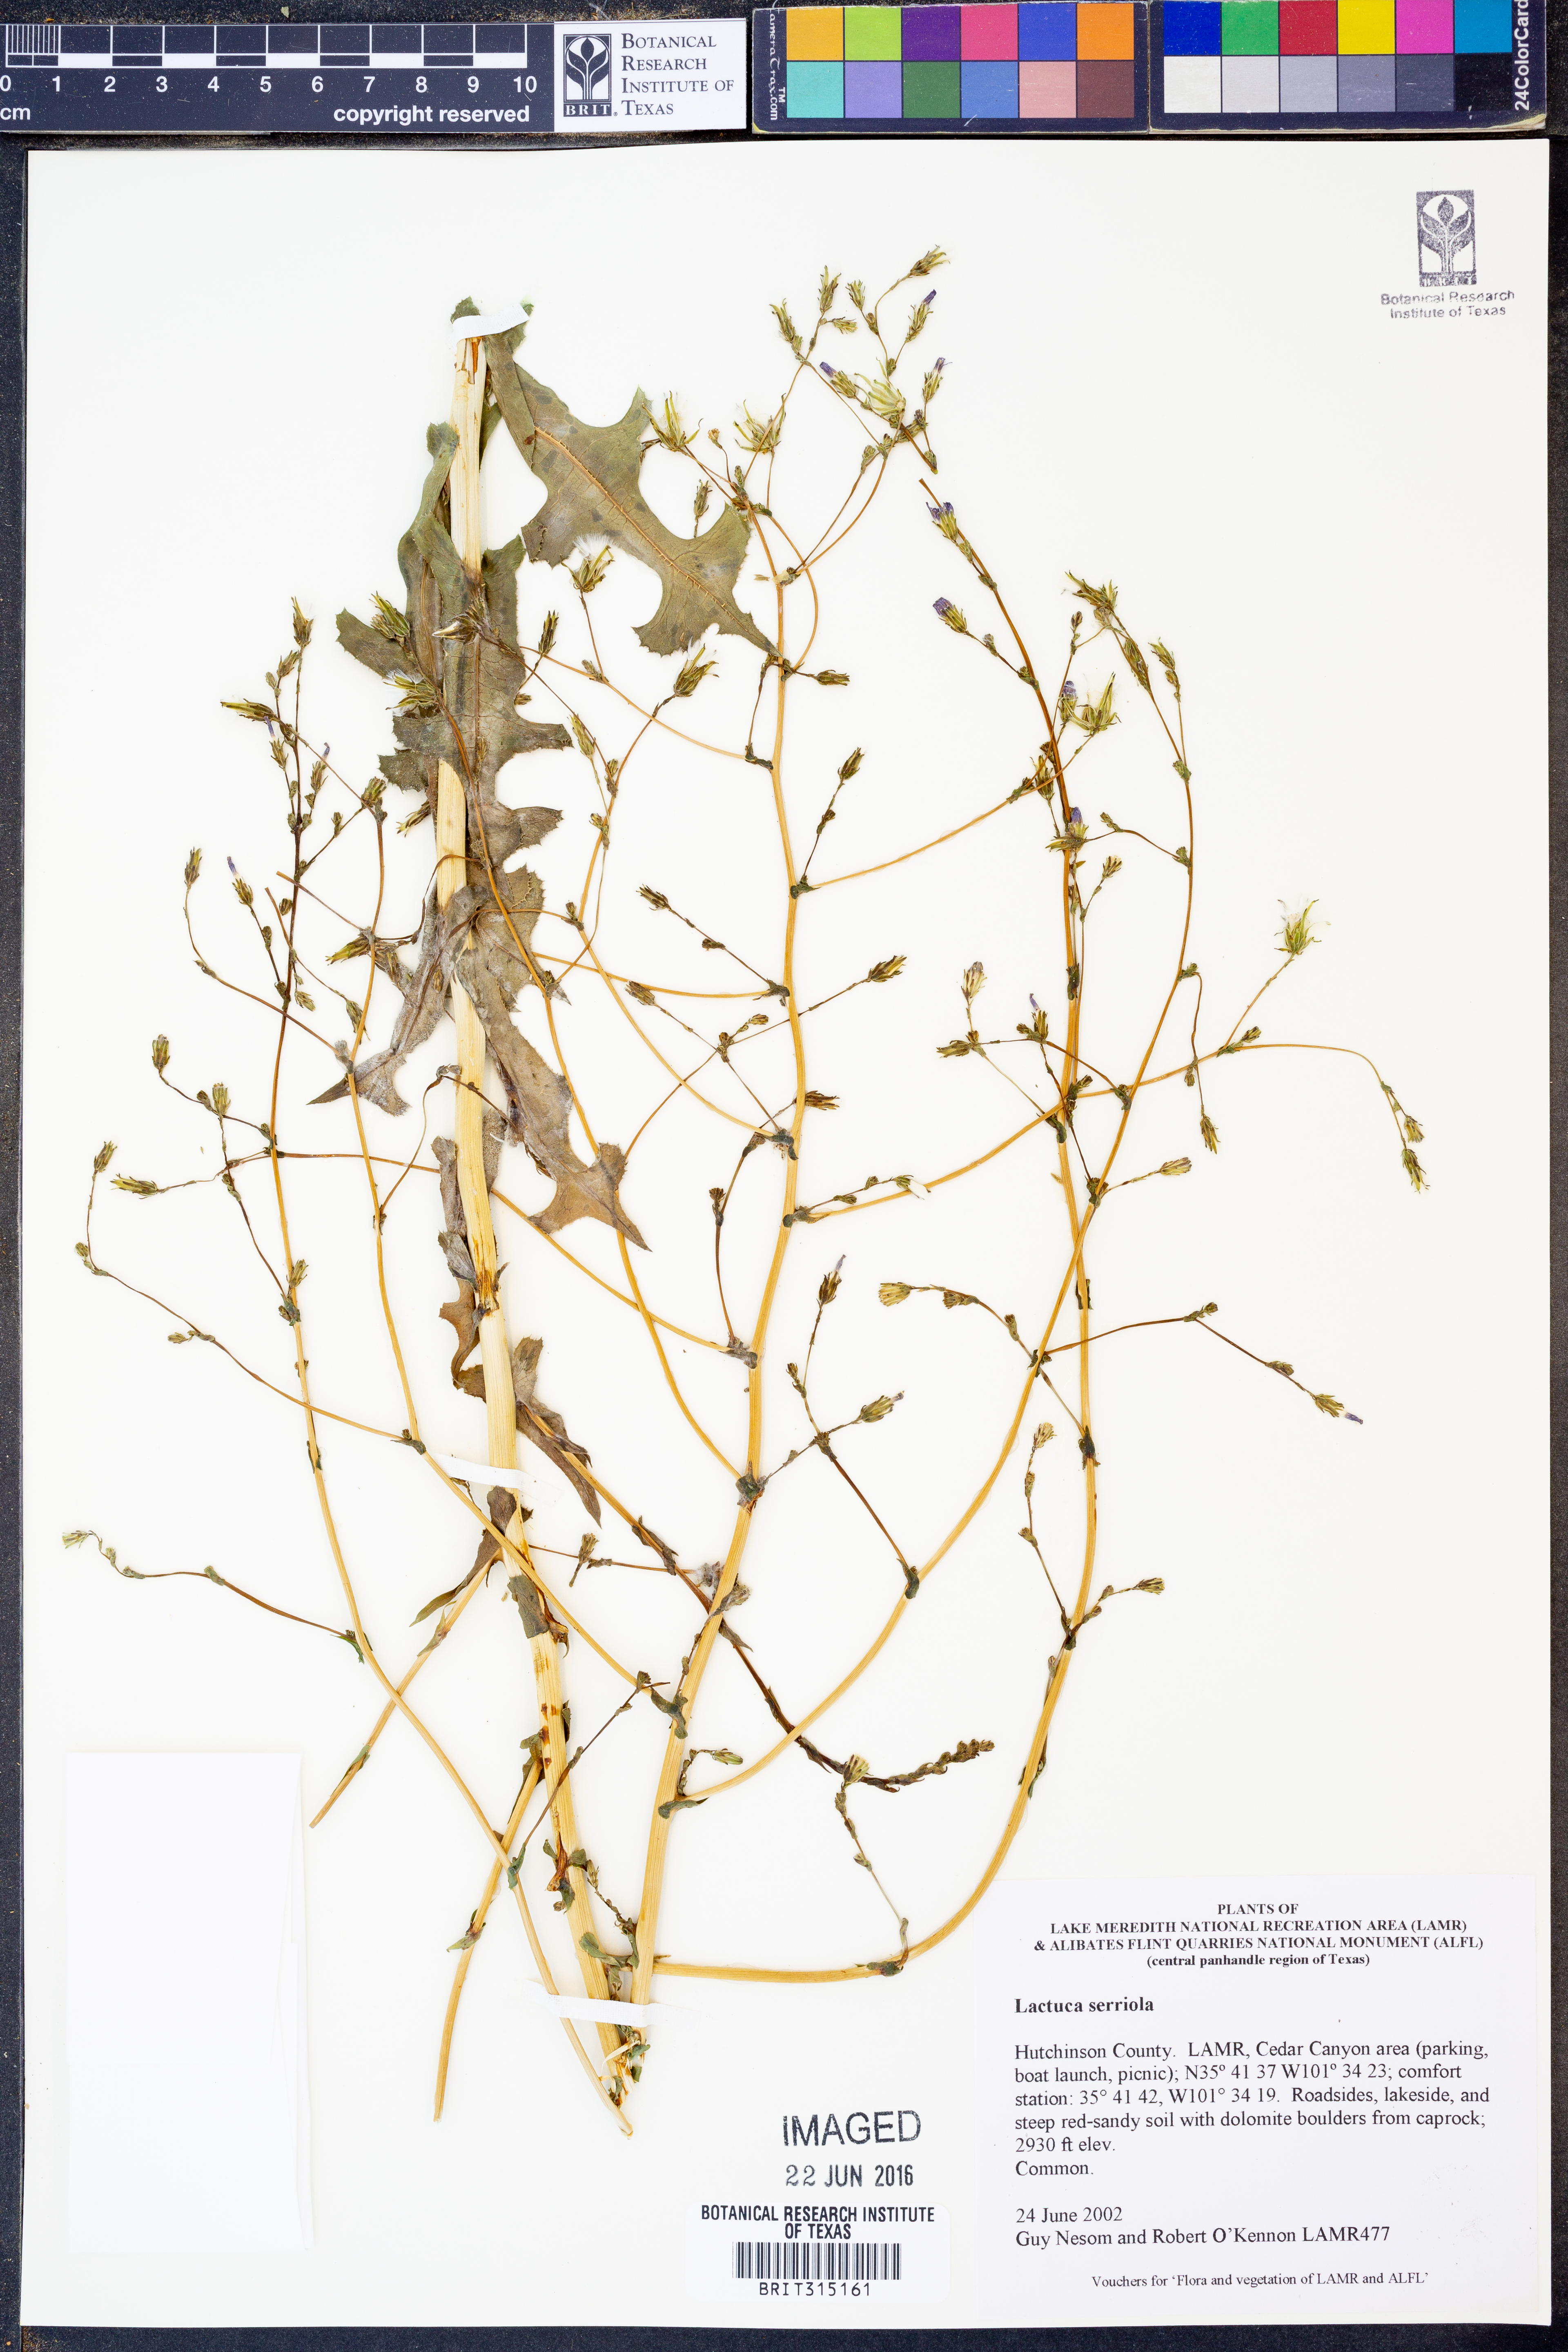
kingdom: Plantae
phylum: Tracheophyta
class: Magnoliopsida
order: Asterales
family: Asteraceae
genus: Lactuca
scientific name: Lactuca serriola
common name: Prickly lettuce
